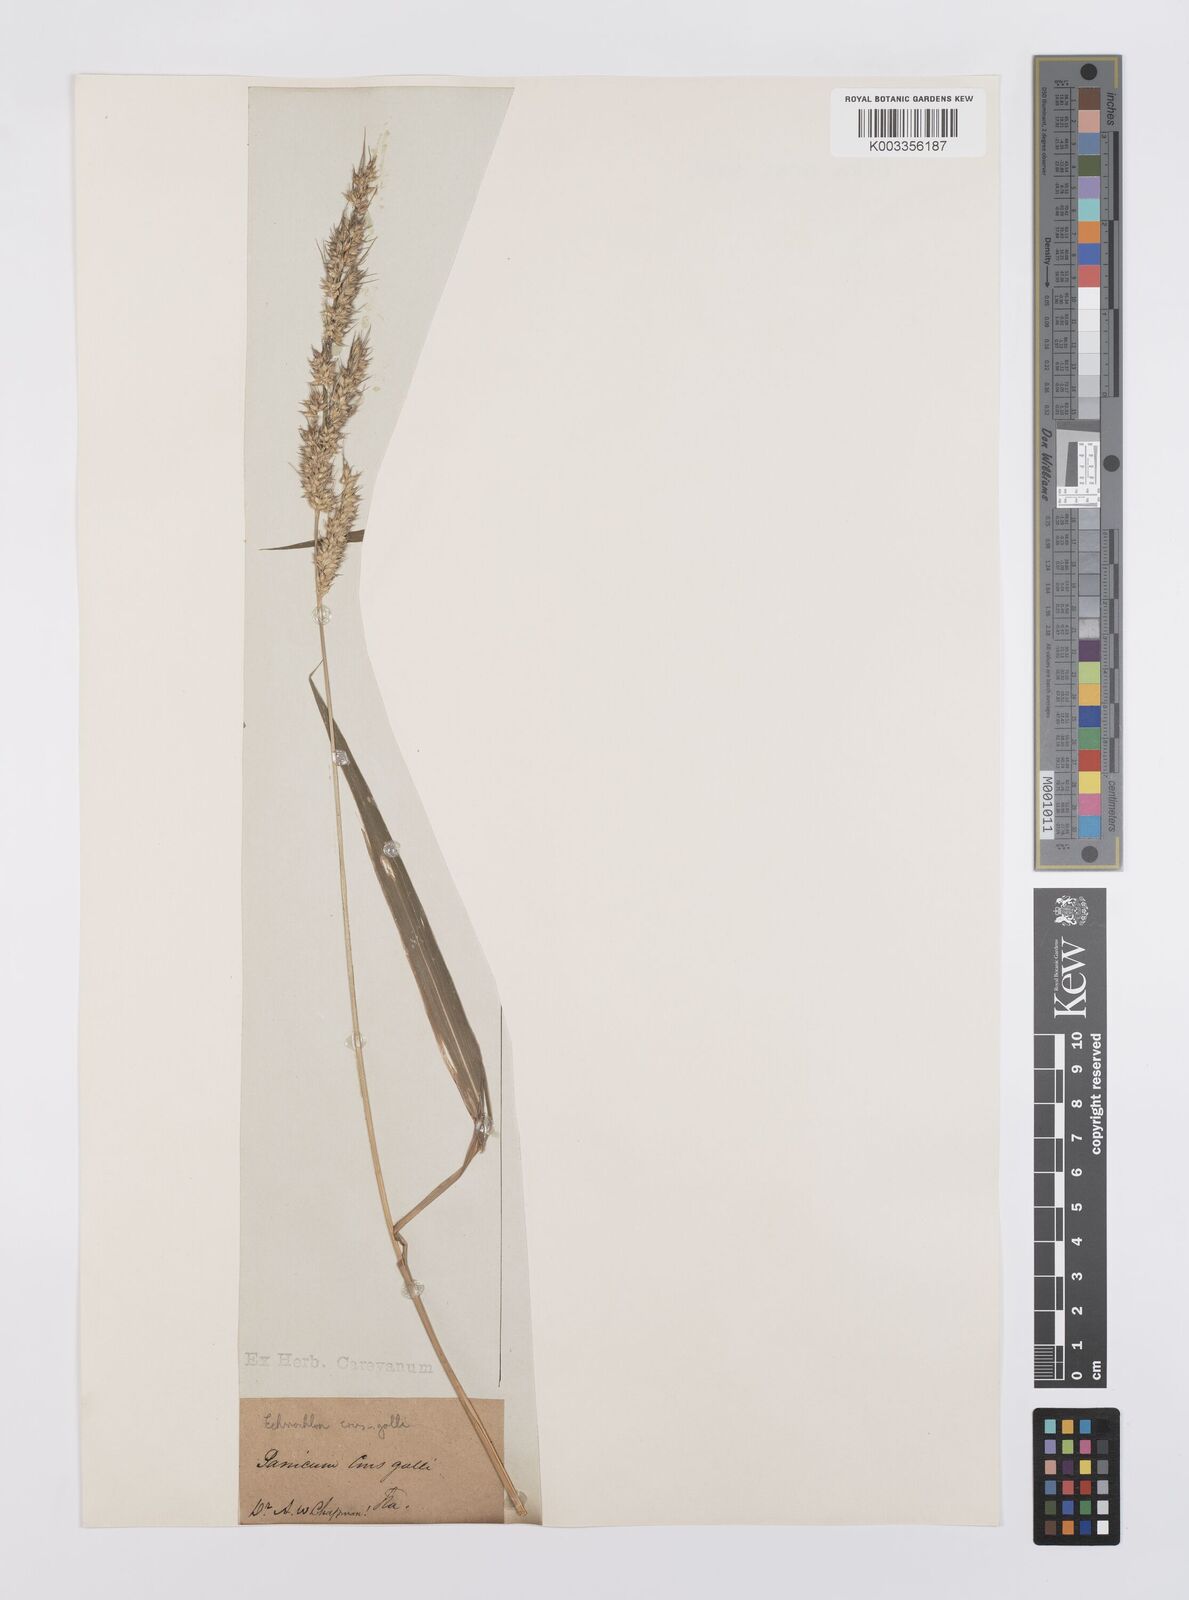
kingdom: Plantae
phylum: Tracheophyta
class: Liliopsida
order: Poales
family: Poaceae
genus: Echinochloa
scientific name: Echinochloa crus-galli
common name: Cockspur
